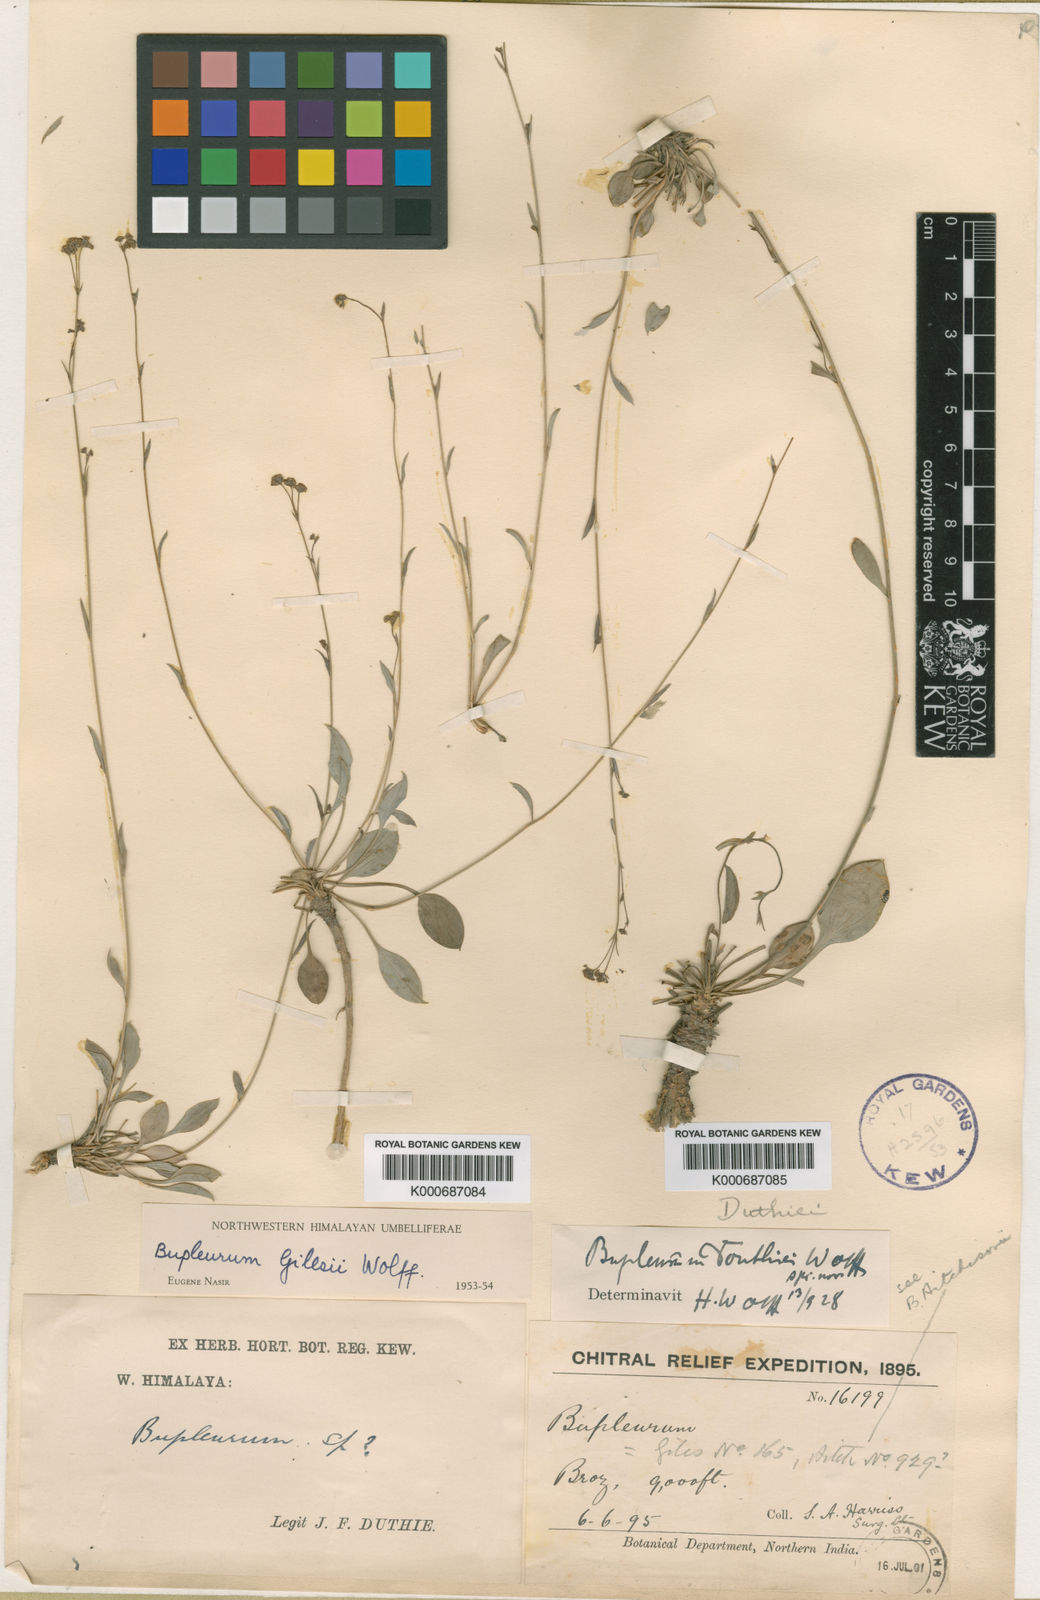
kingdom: Plantae
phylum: Tracheophyta
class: Magnoliopsida
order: Apiales
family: Apiaceae
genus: Bupleurum
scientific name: Bupleurum gilesii
